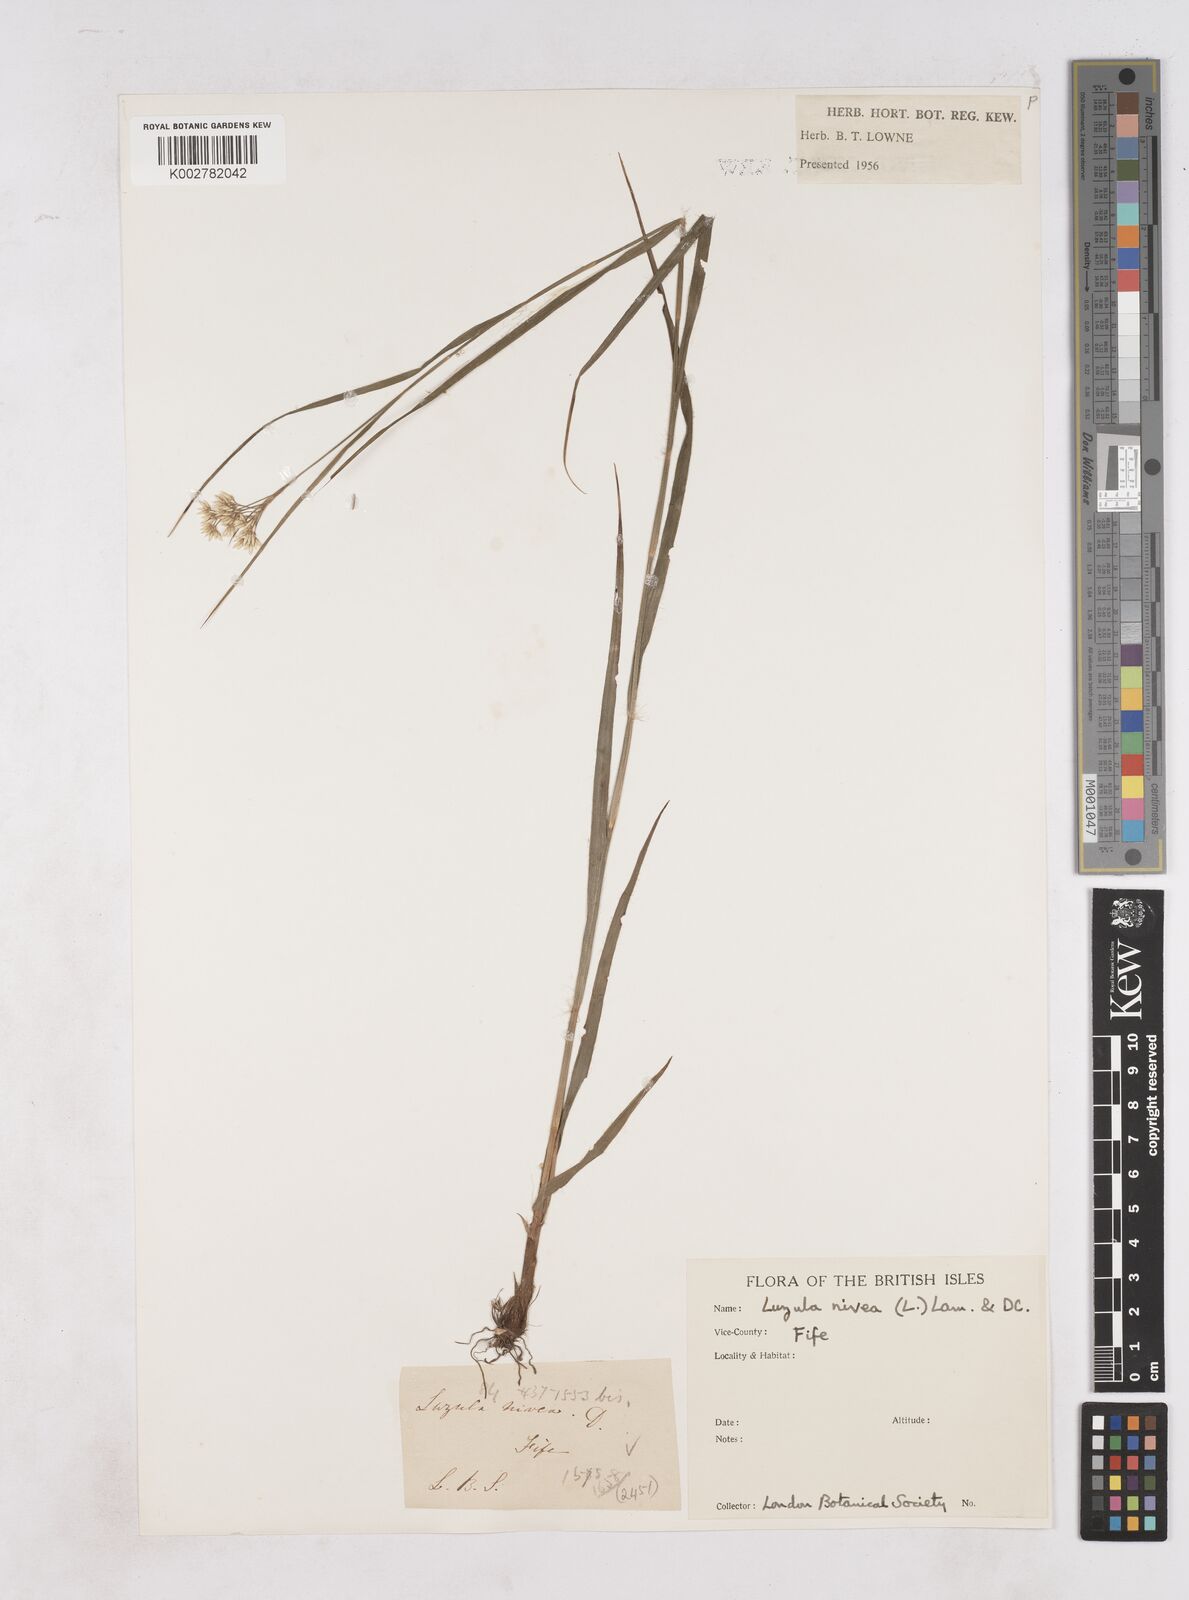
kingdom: Plantae
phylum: Tracheophyta
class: Liliopsida
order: Poales
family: Juncaceae
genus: Luzula
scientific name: Luzula nivea
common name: Snow-white wood-rush
